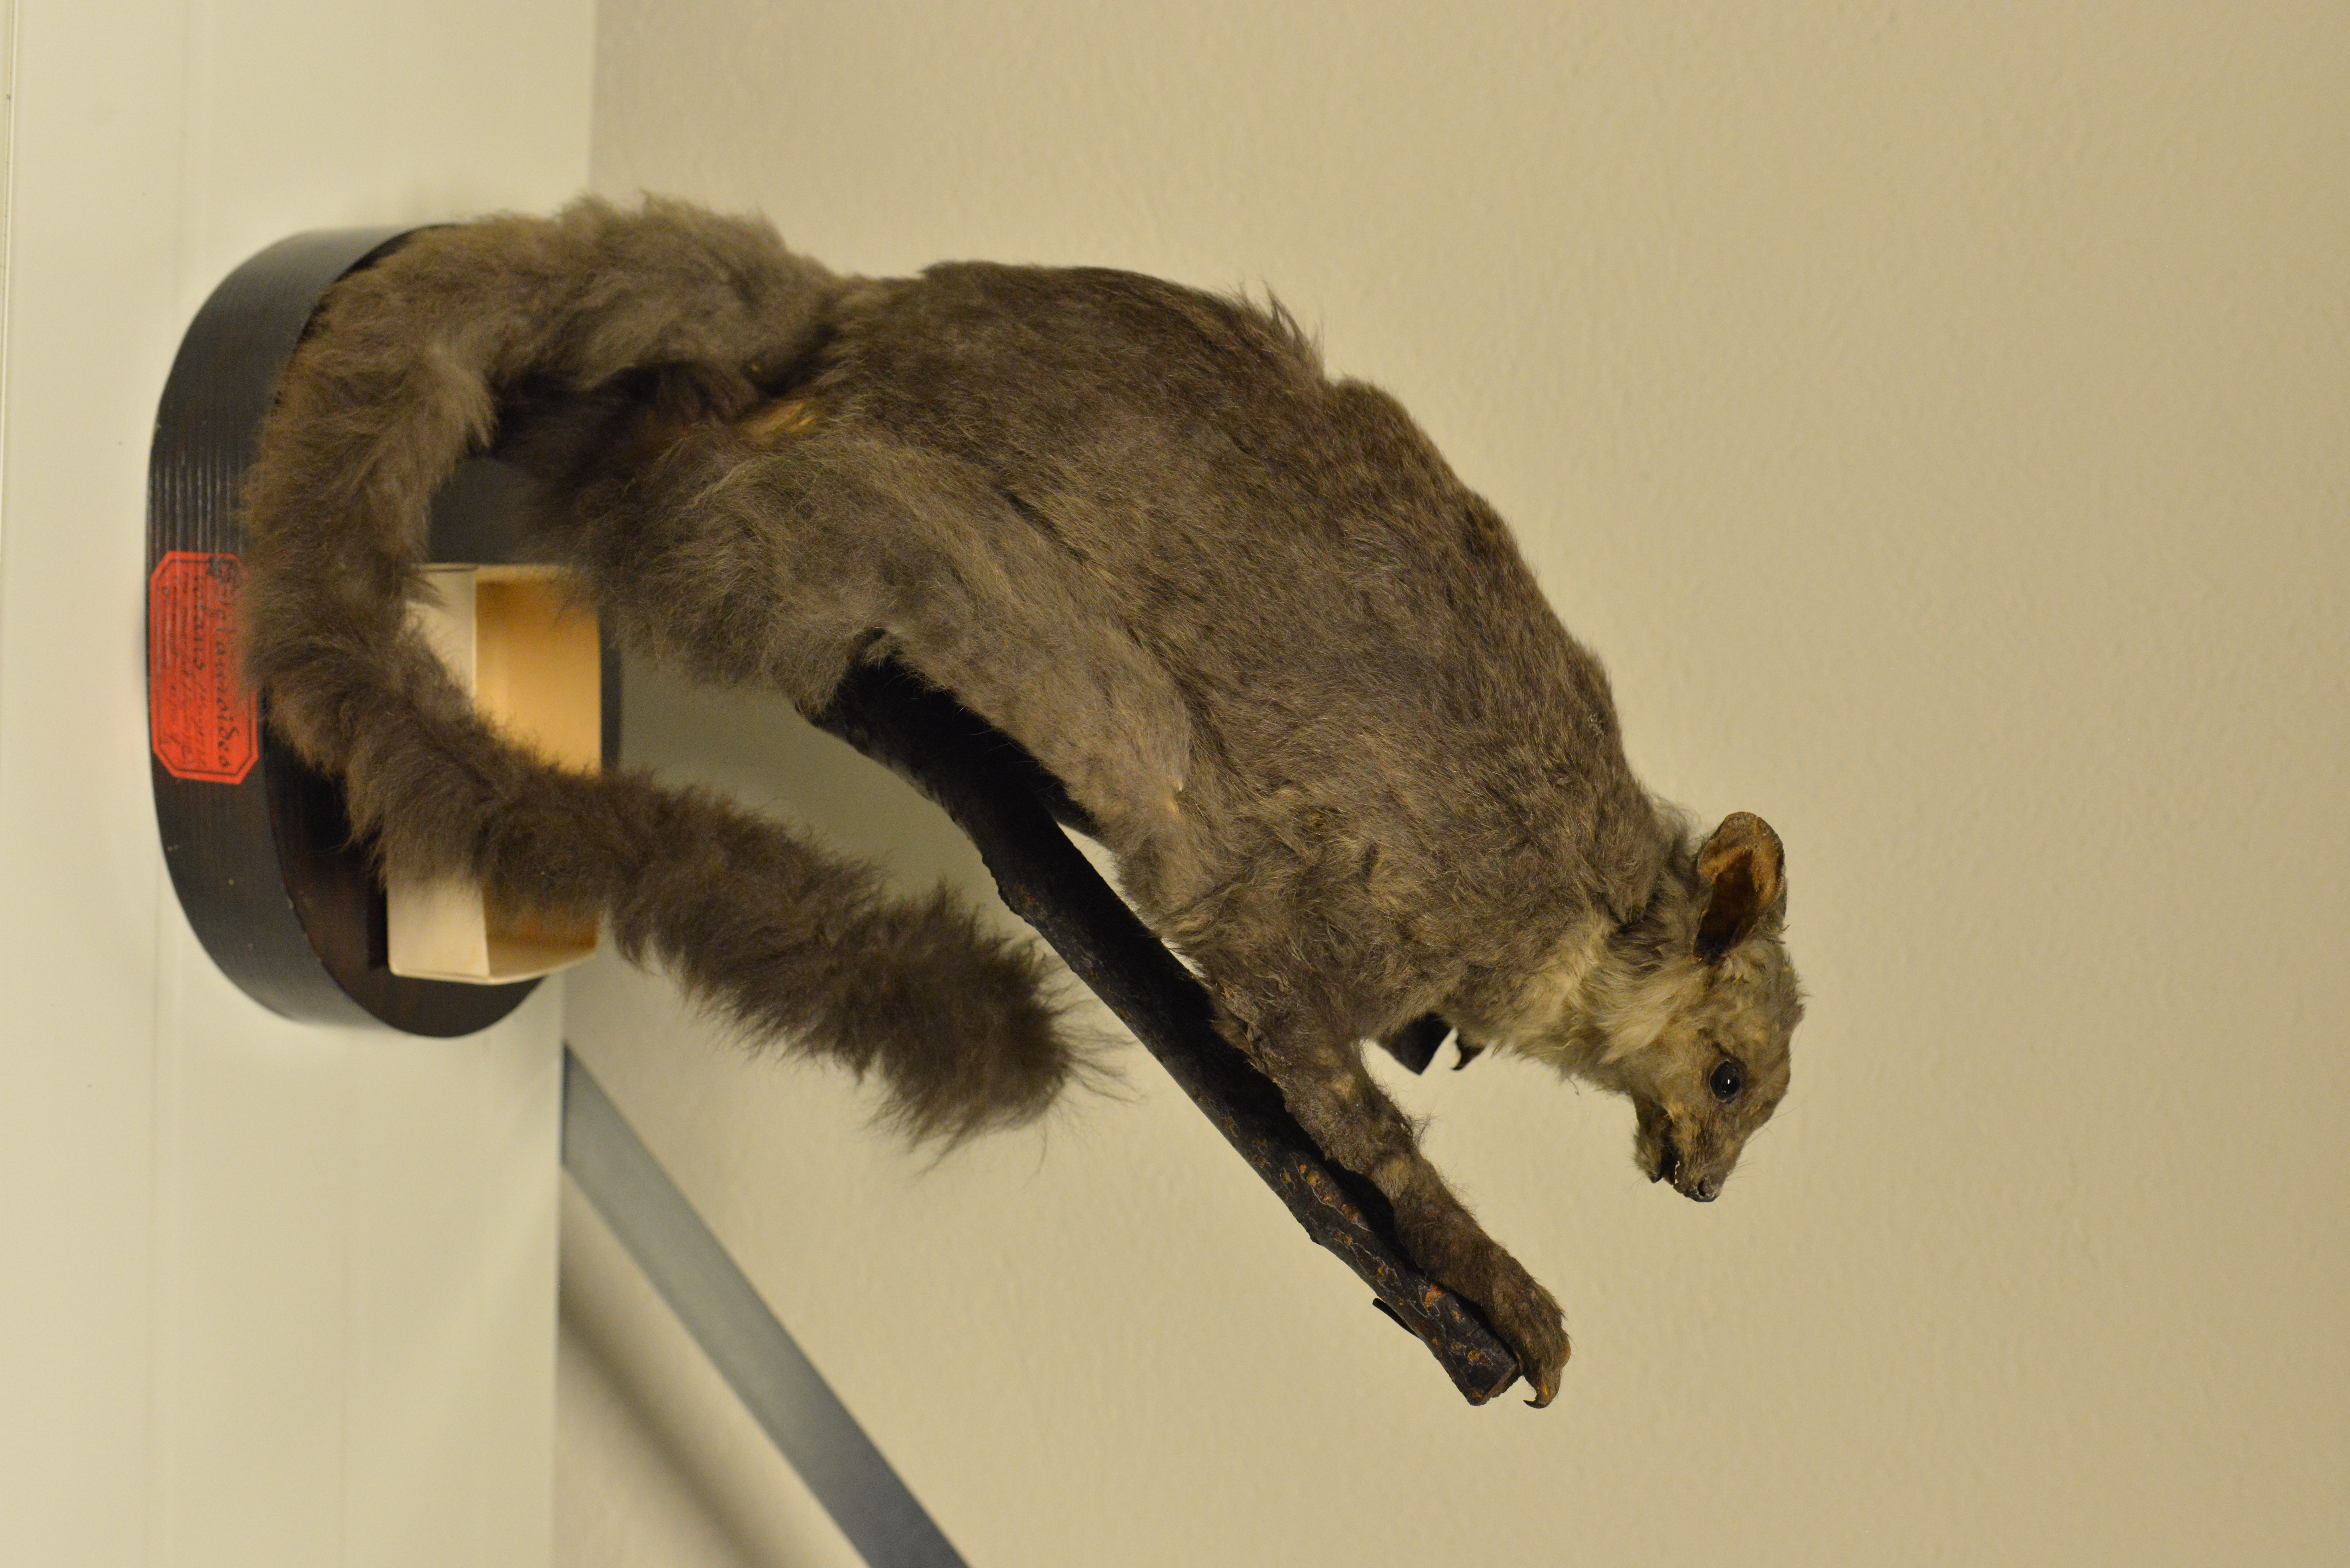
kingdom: Animalia
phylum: Chordata
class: Mammalia
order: Diprotodontia
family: Pseudocheiridae
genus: Petauroides
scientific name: Petauroides volans
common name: Greater glider
